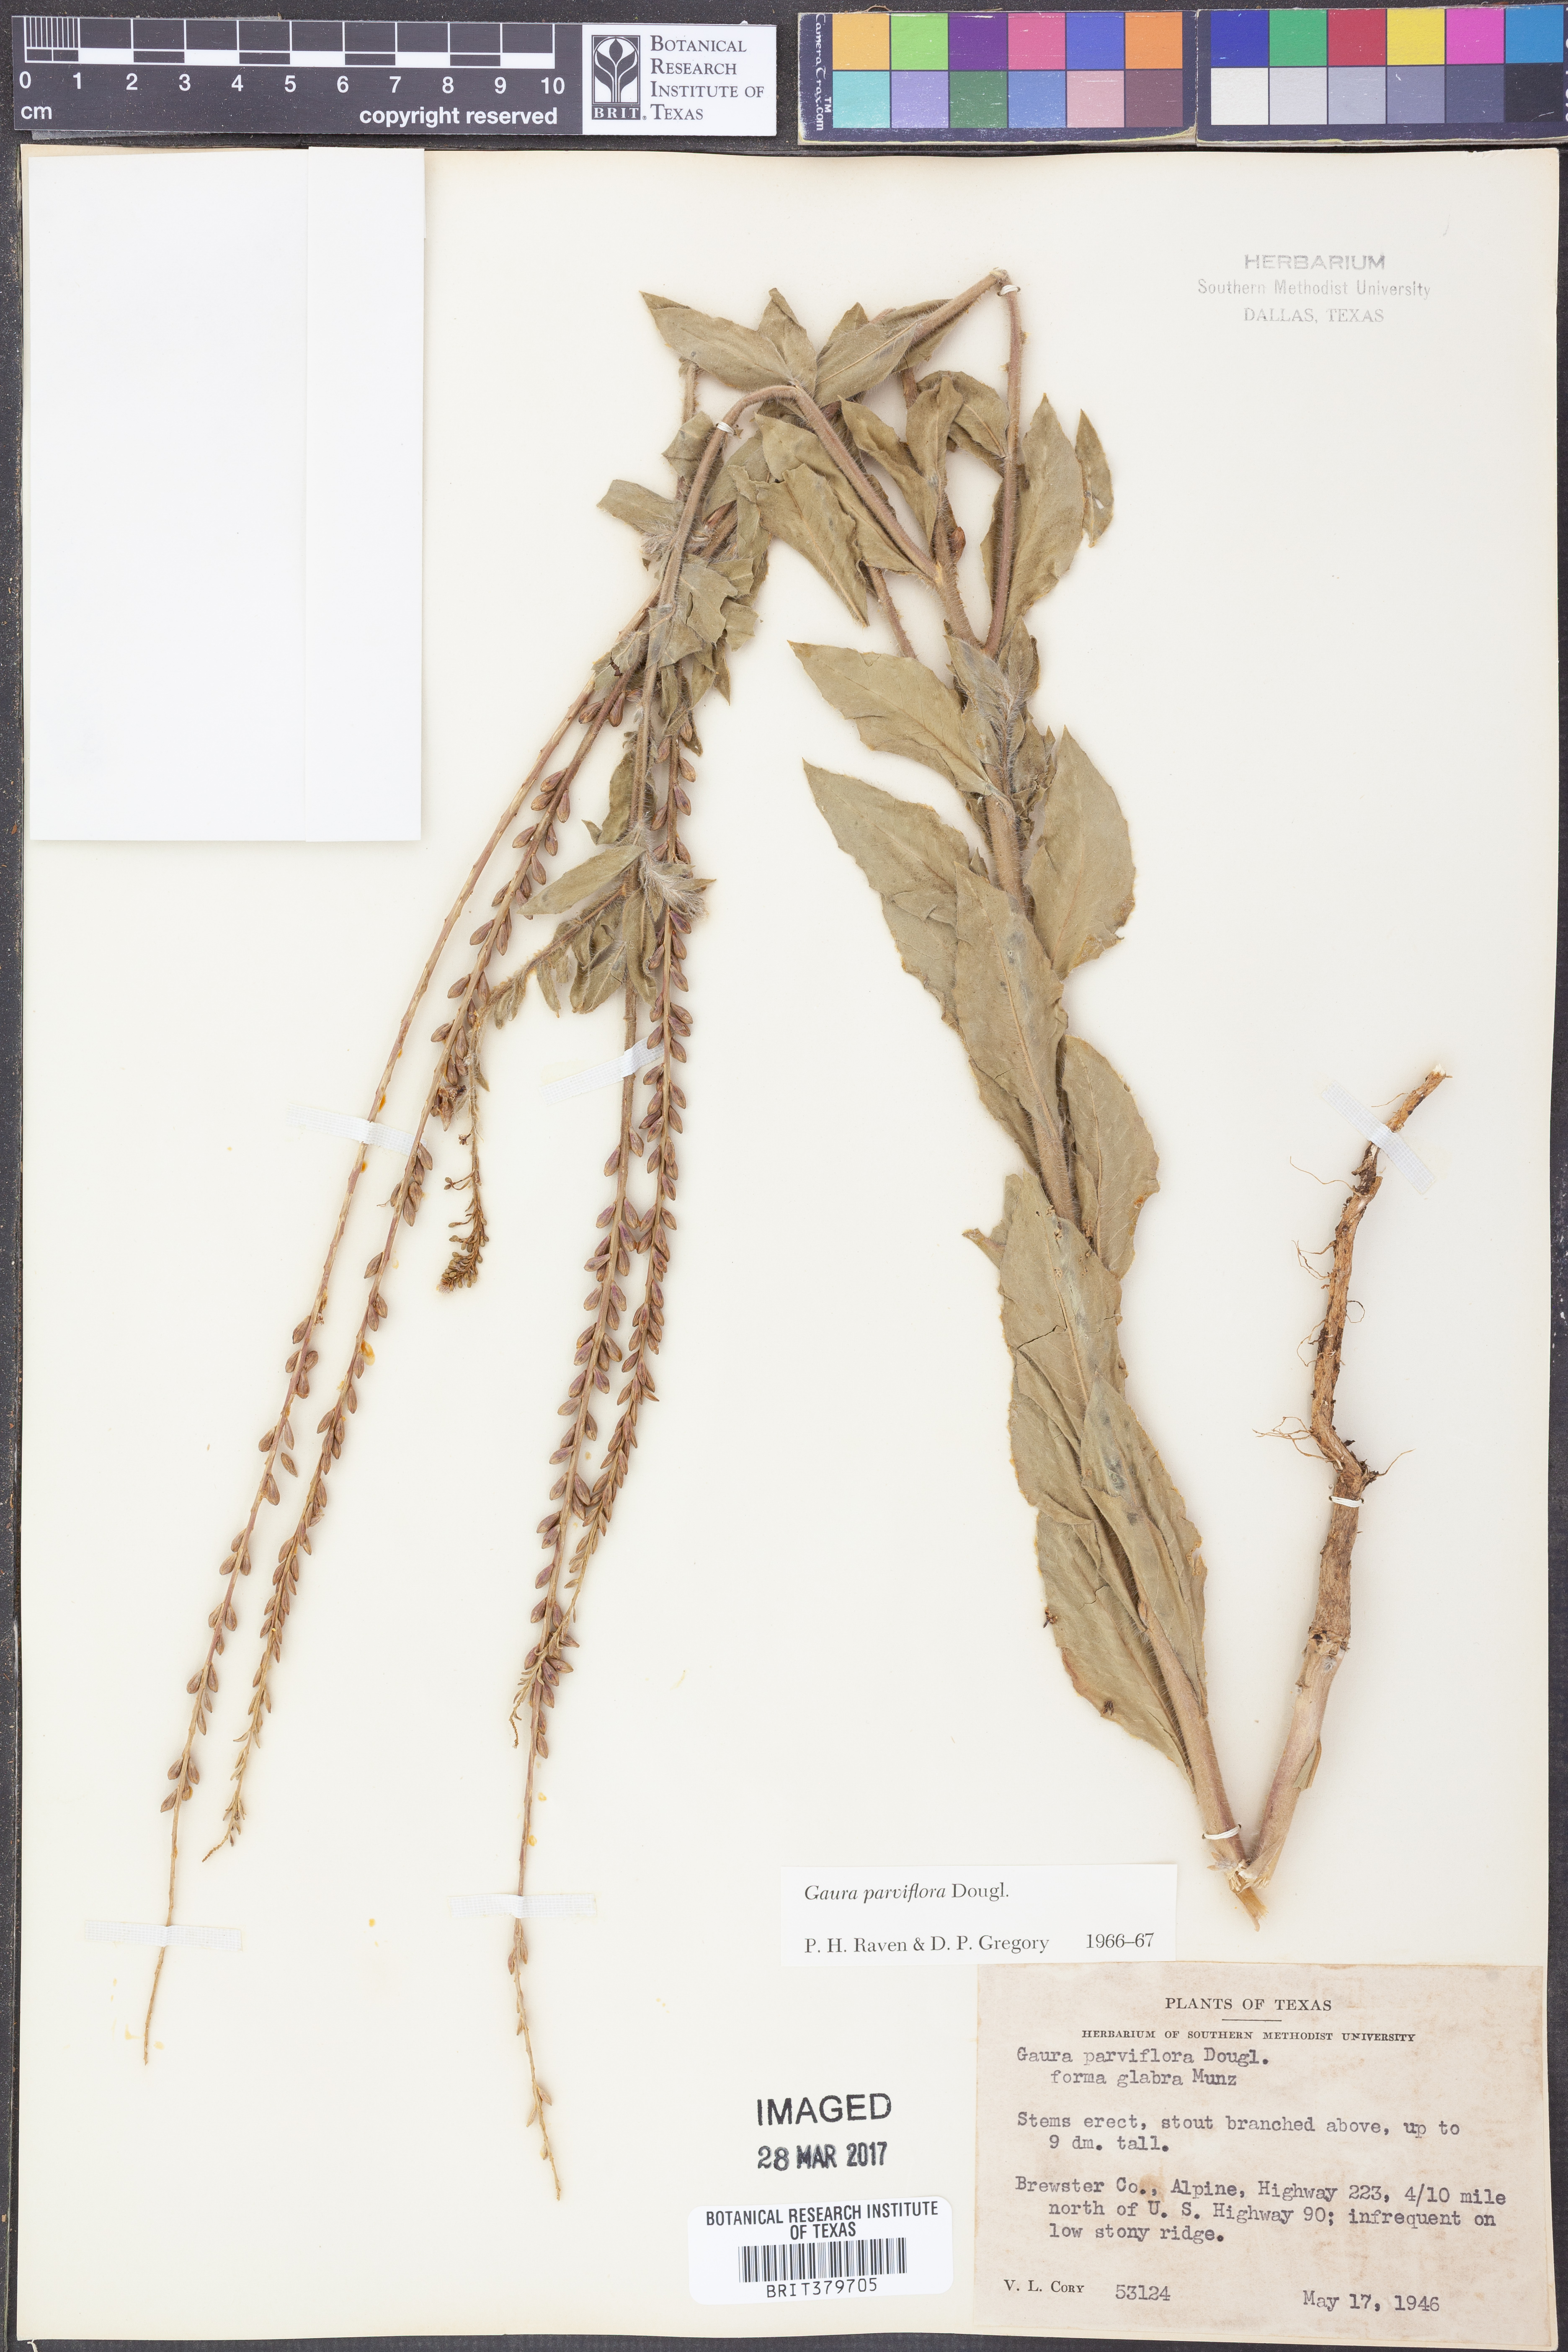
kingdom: Plantae
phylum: Tracheophyta
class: Magnoliopsida
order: Myrtales
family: Onagraceae
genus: Oenothera
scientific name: Oenothera curtiflora
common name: Velvetweed
